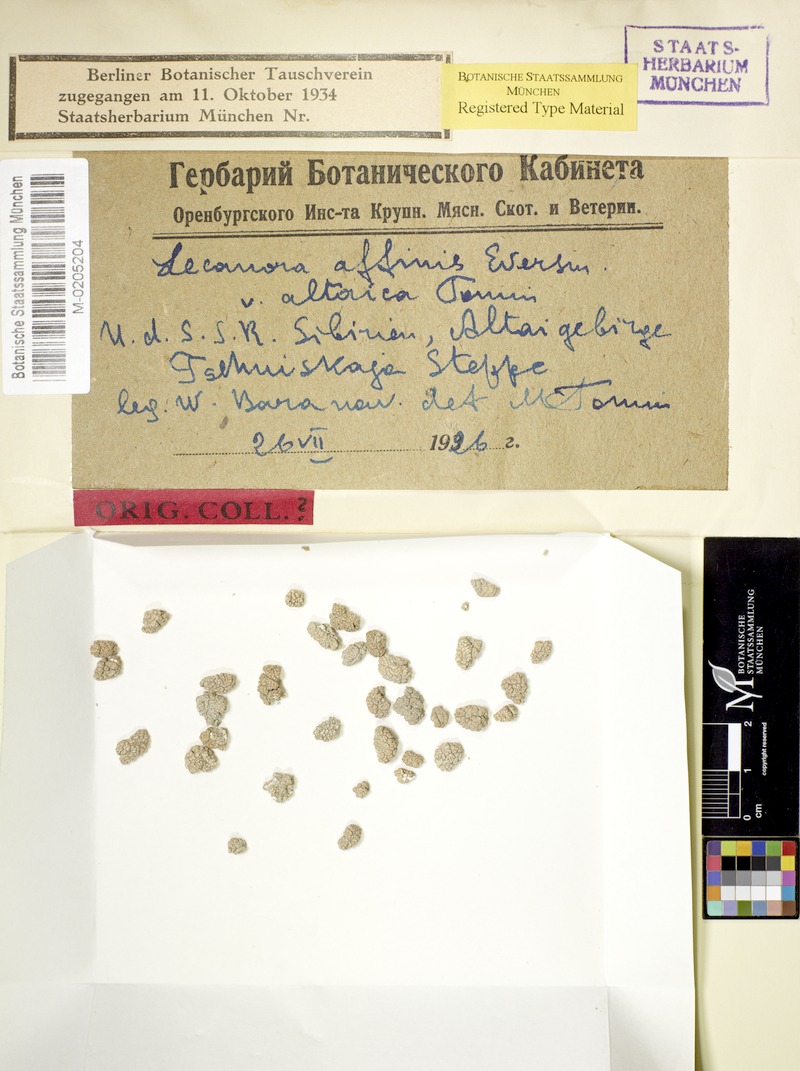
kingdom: Fungi
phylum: Ascomycota
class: Lecanoromycetes
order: Pertusariales
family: Megasporaceae
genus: Circinaria
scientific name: Circinaria affinis
